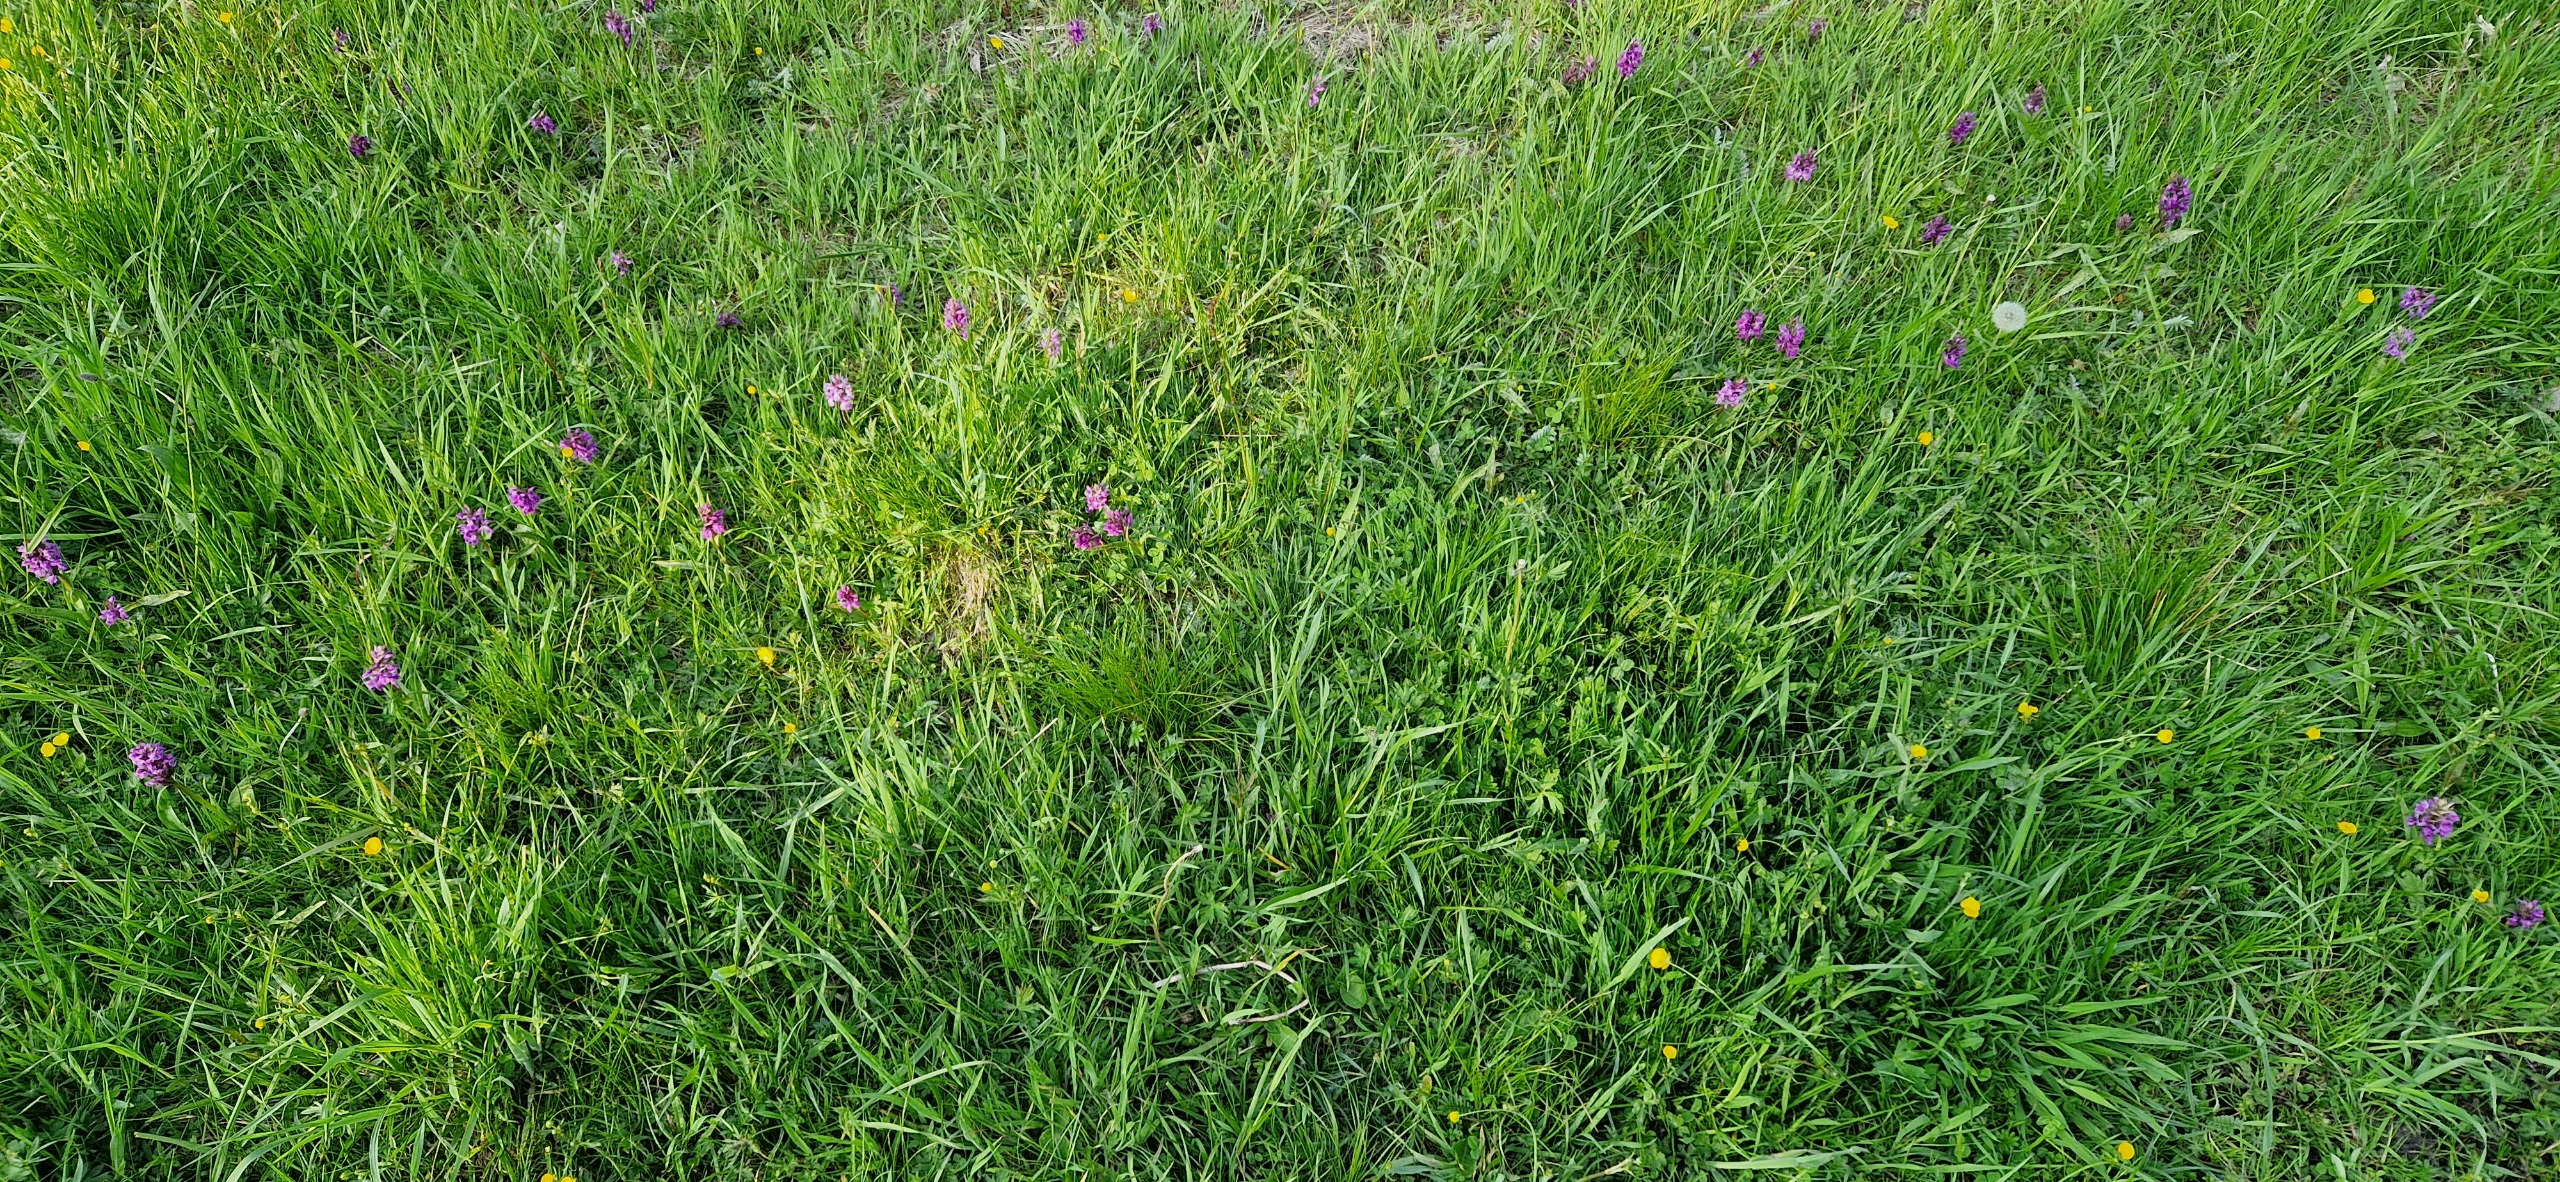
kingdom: Plantae
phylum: Tracheophyta
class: Liliopsida
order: Asparagales
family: Orchidaceae
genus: Dactylorhiza
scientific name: Dactylorhiza majalis
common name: Maj-gøgeurt
